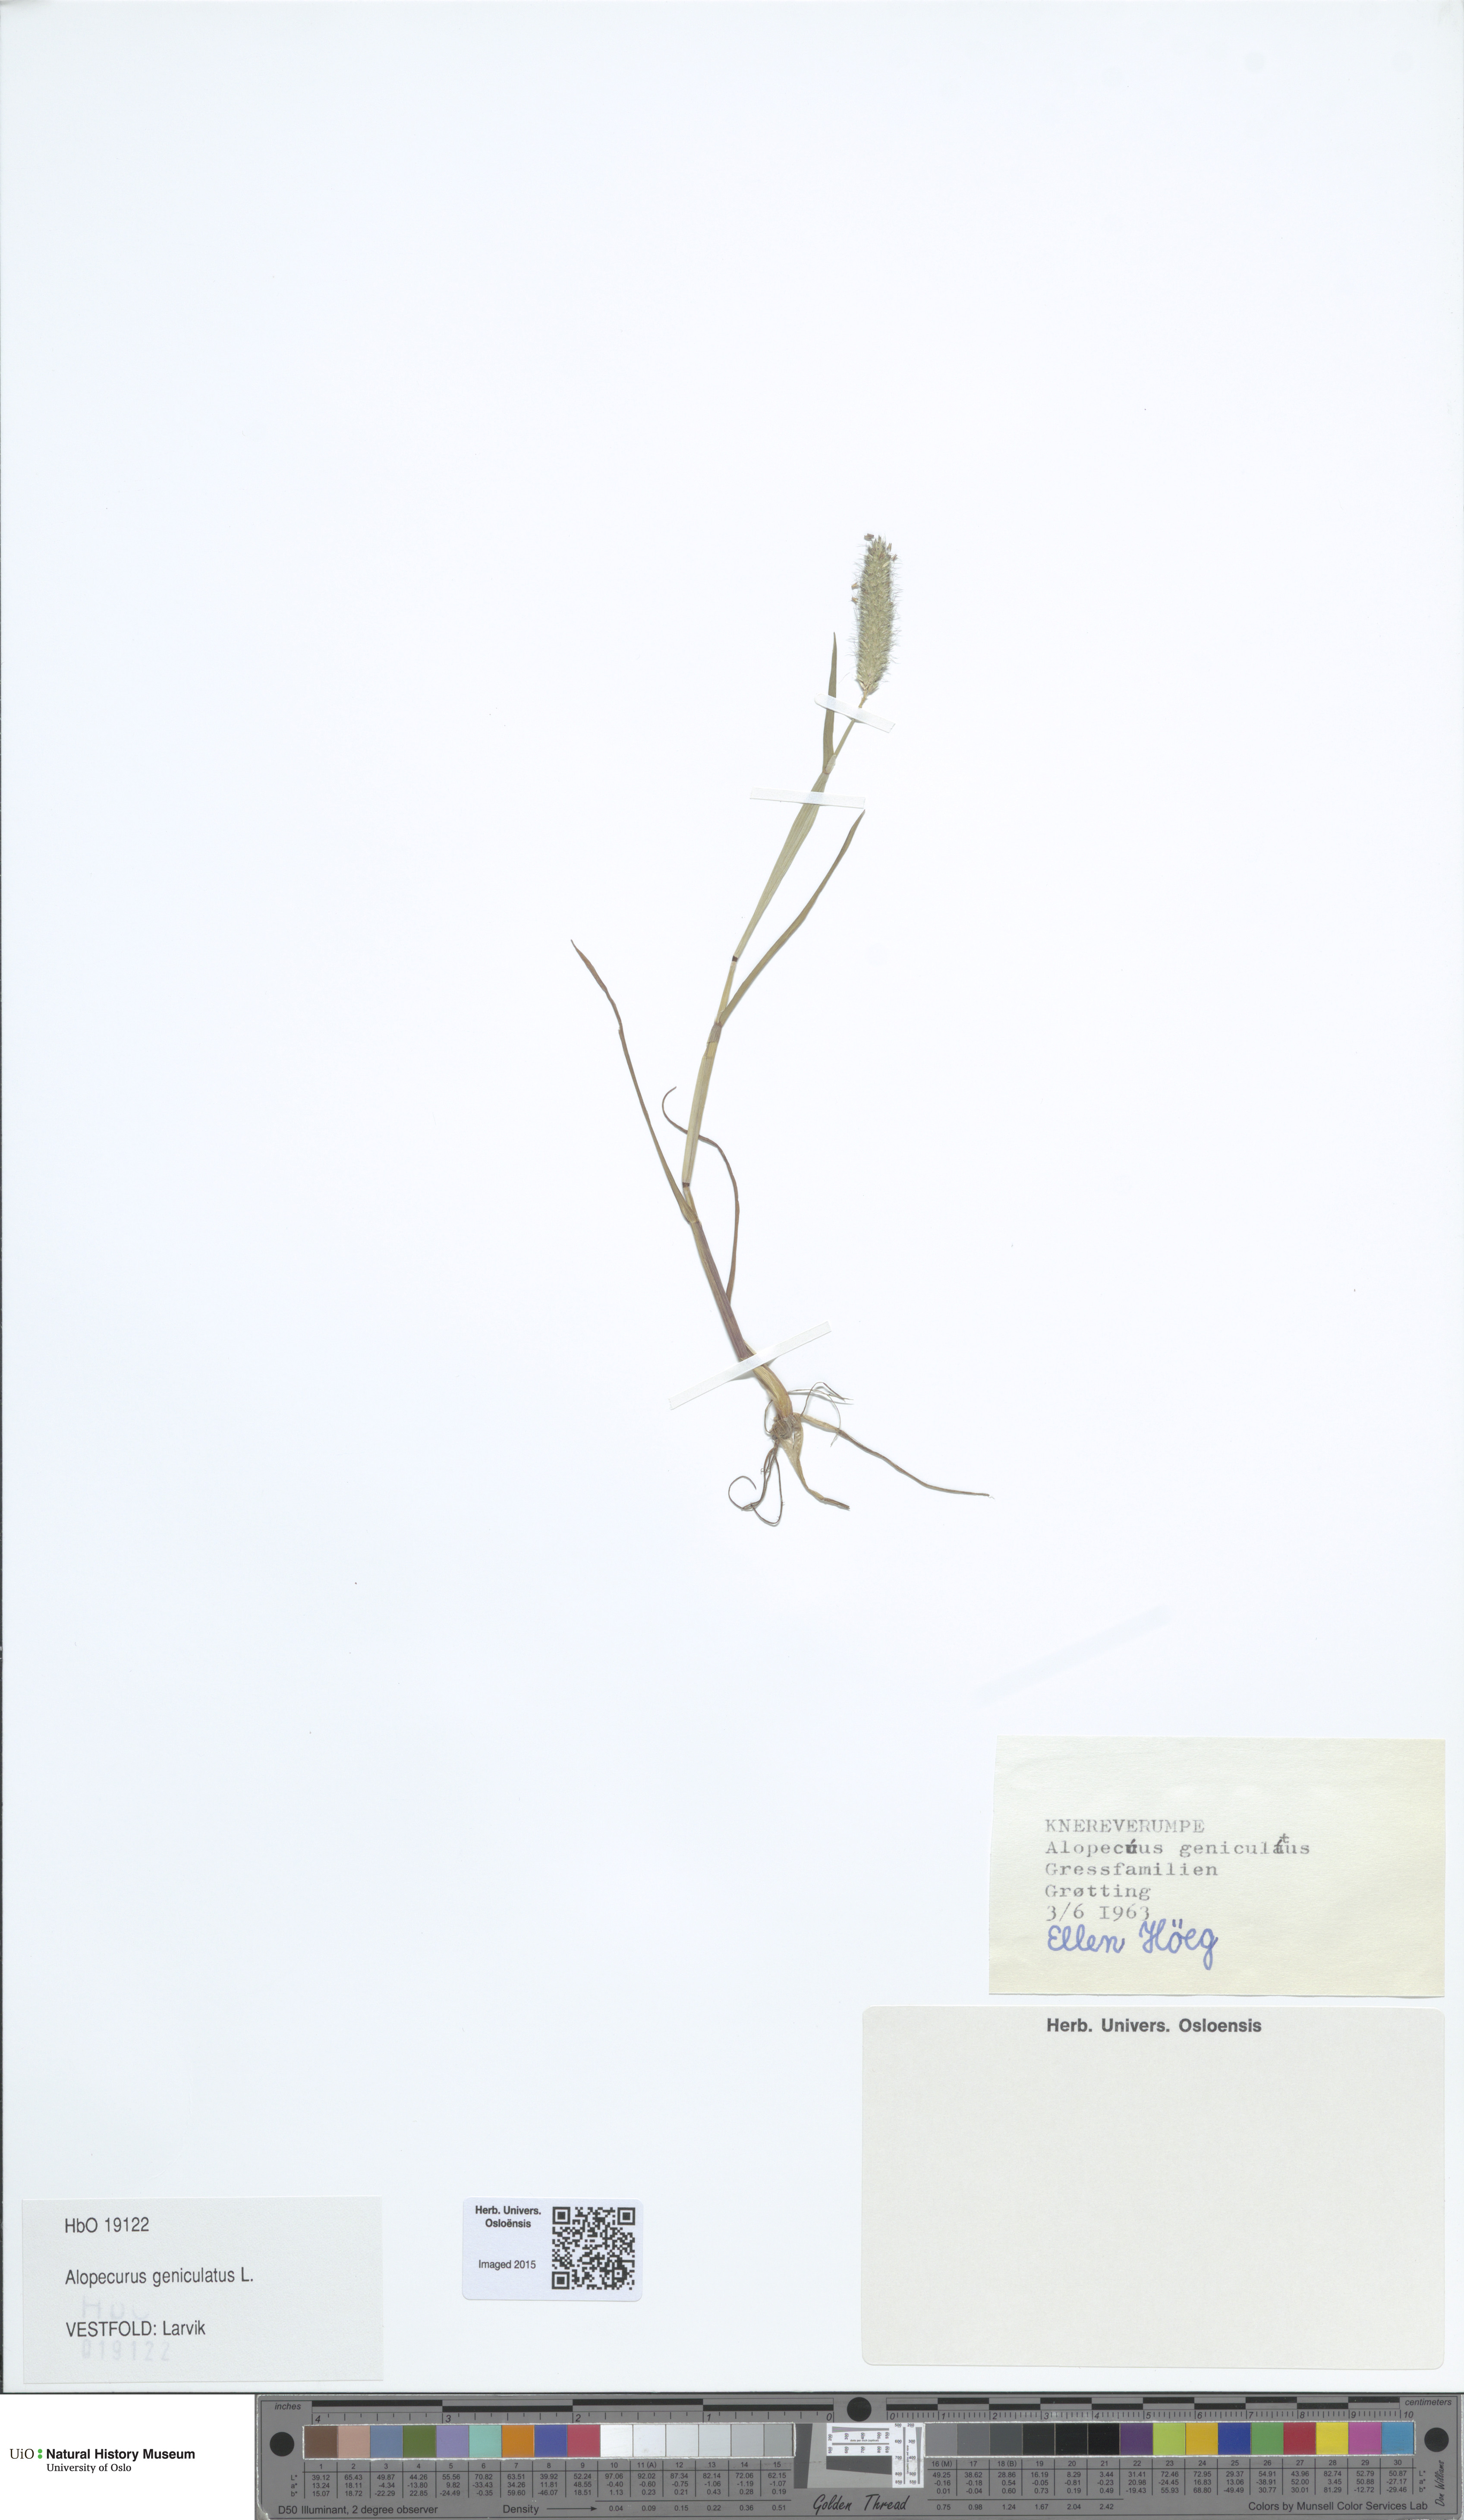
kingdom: Plantae
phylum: Tracheophyta
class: Liliopsida
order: Poales
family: Poaceae
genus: Alopecurus
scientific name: Alopecurus geniculatus
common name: Water foxtail
